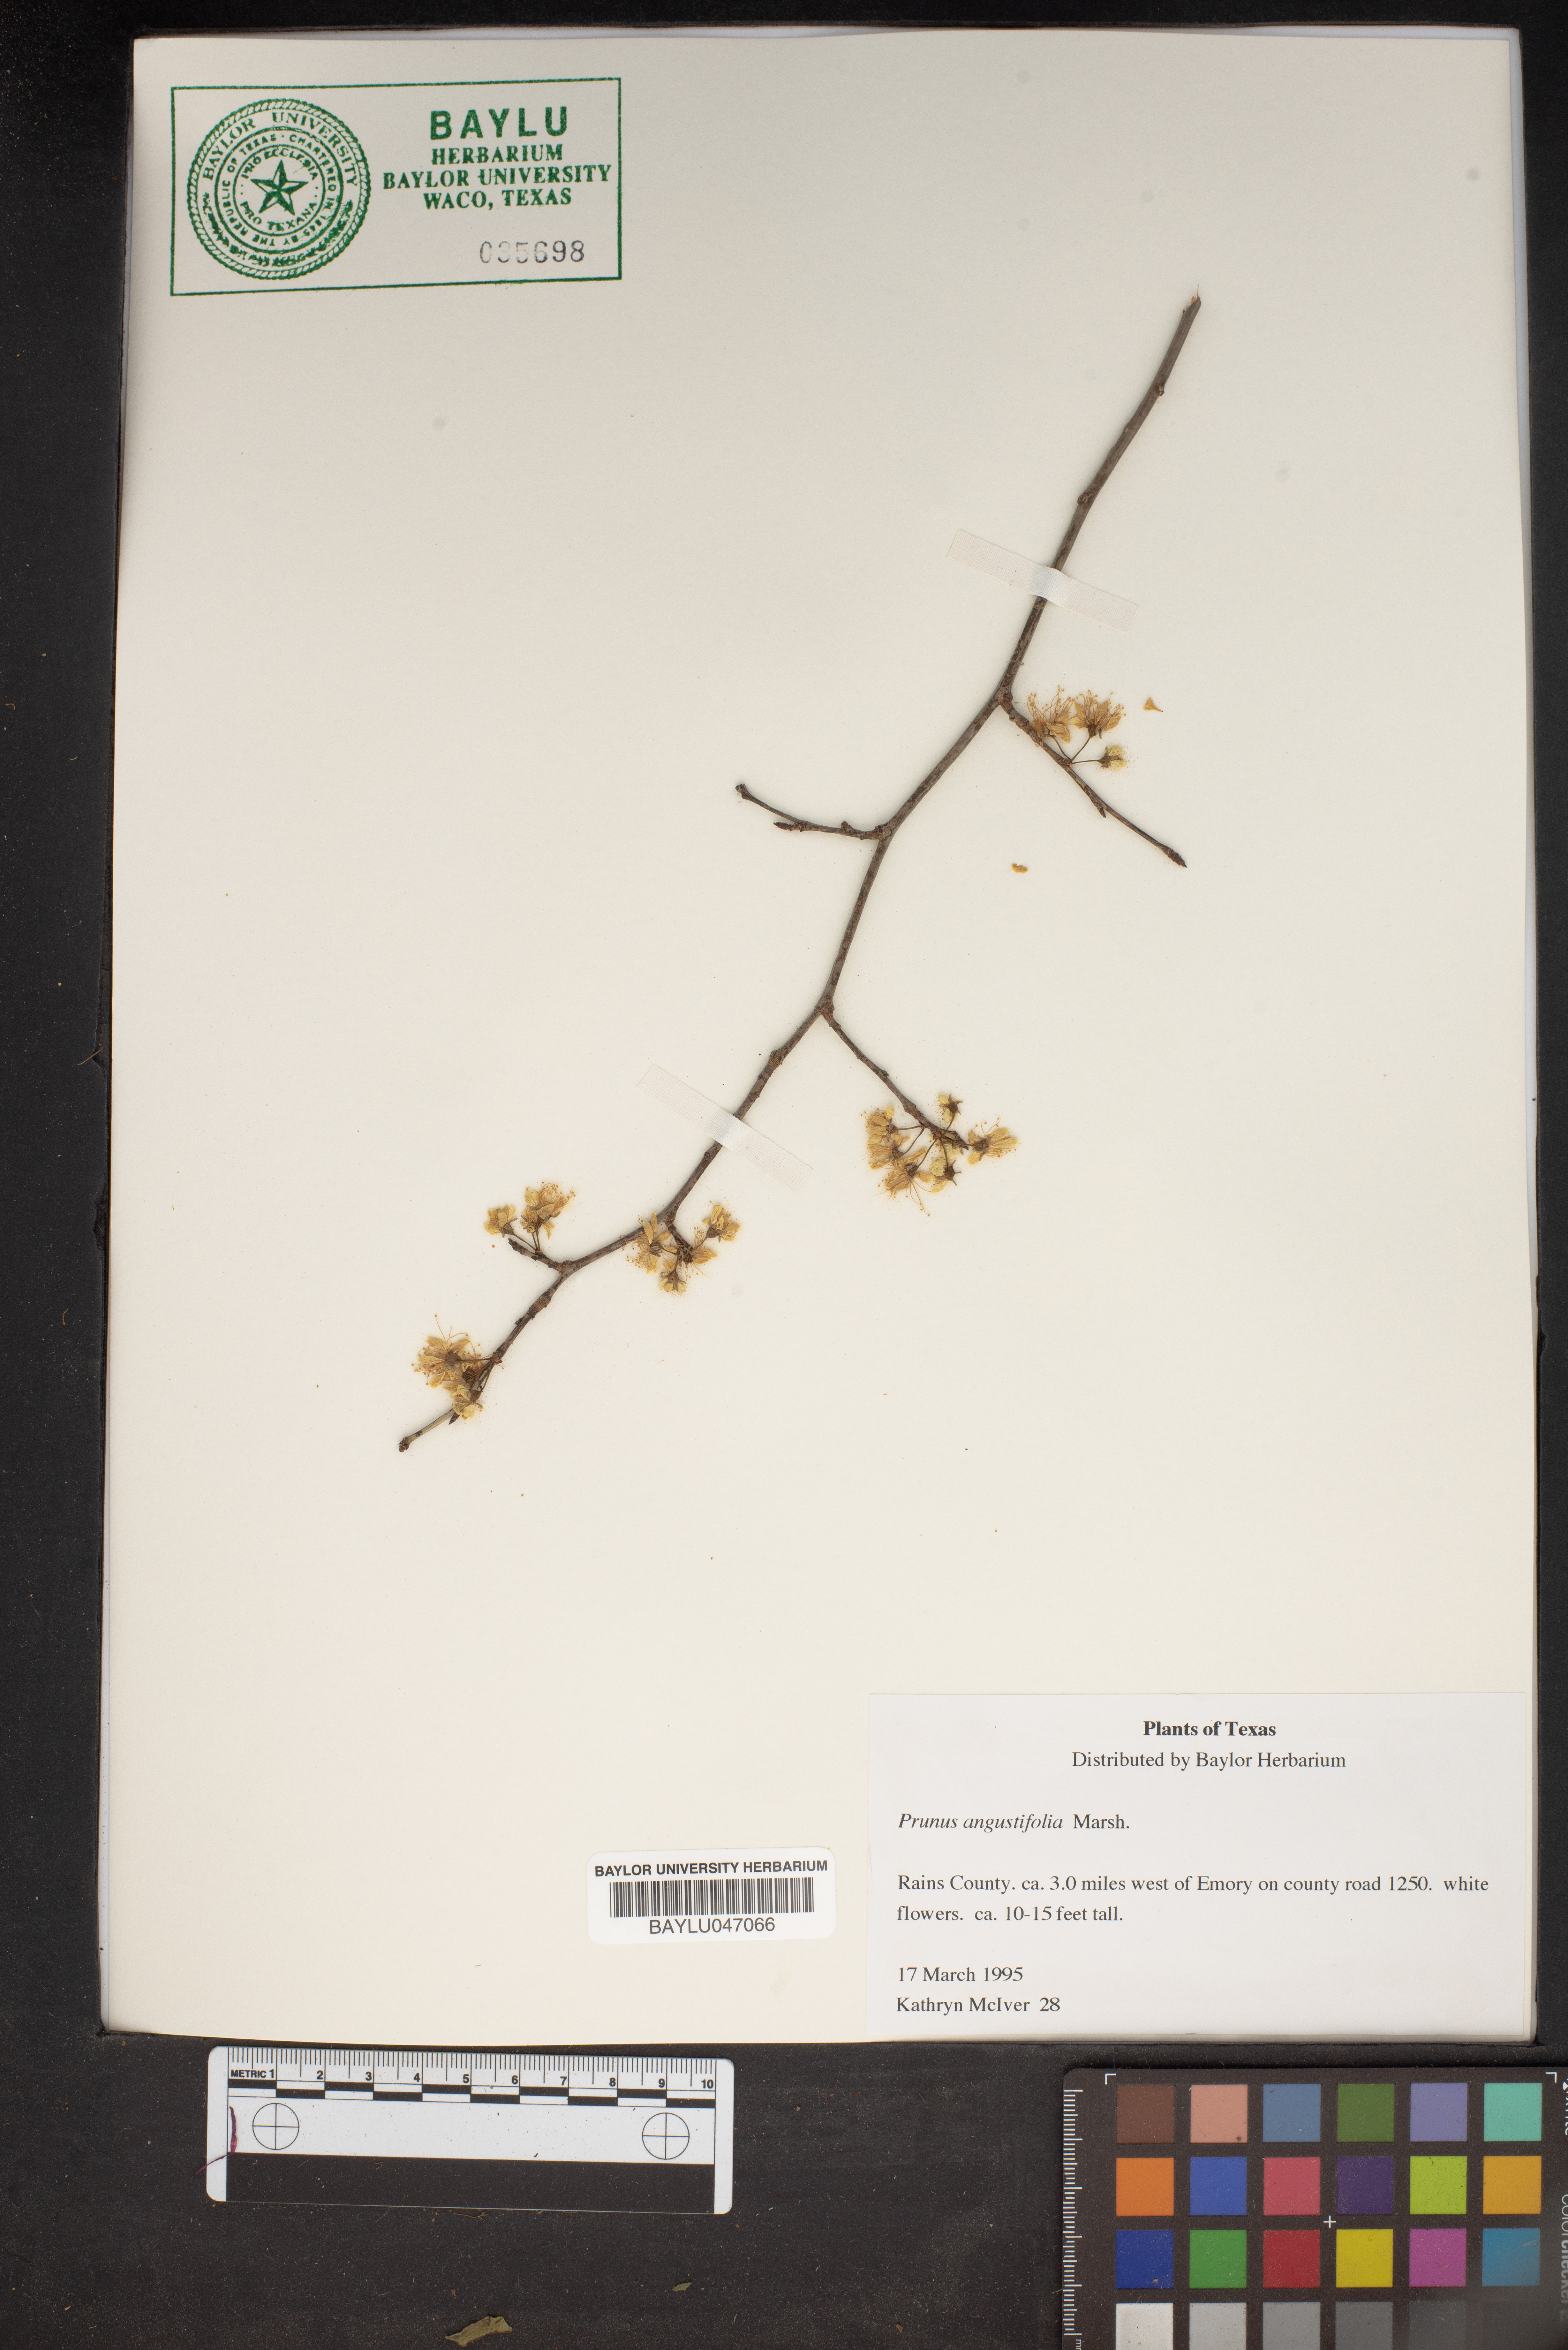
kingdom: Plantae
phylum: Tracheophyta
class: Magnoliopsida
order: Rosales
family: Rosaceae
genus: Prunus
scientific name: Prunus angustifolia
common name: Cherokee plum
